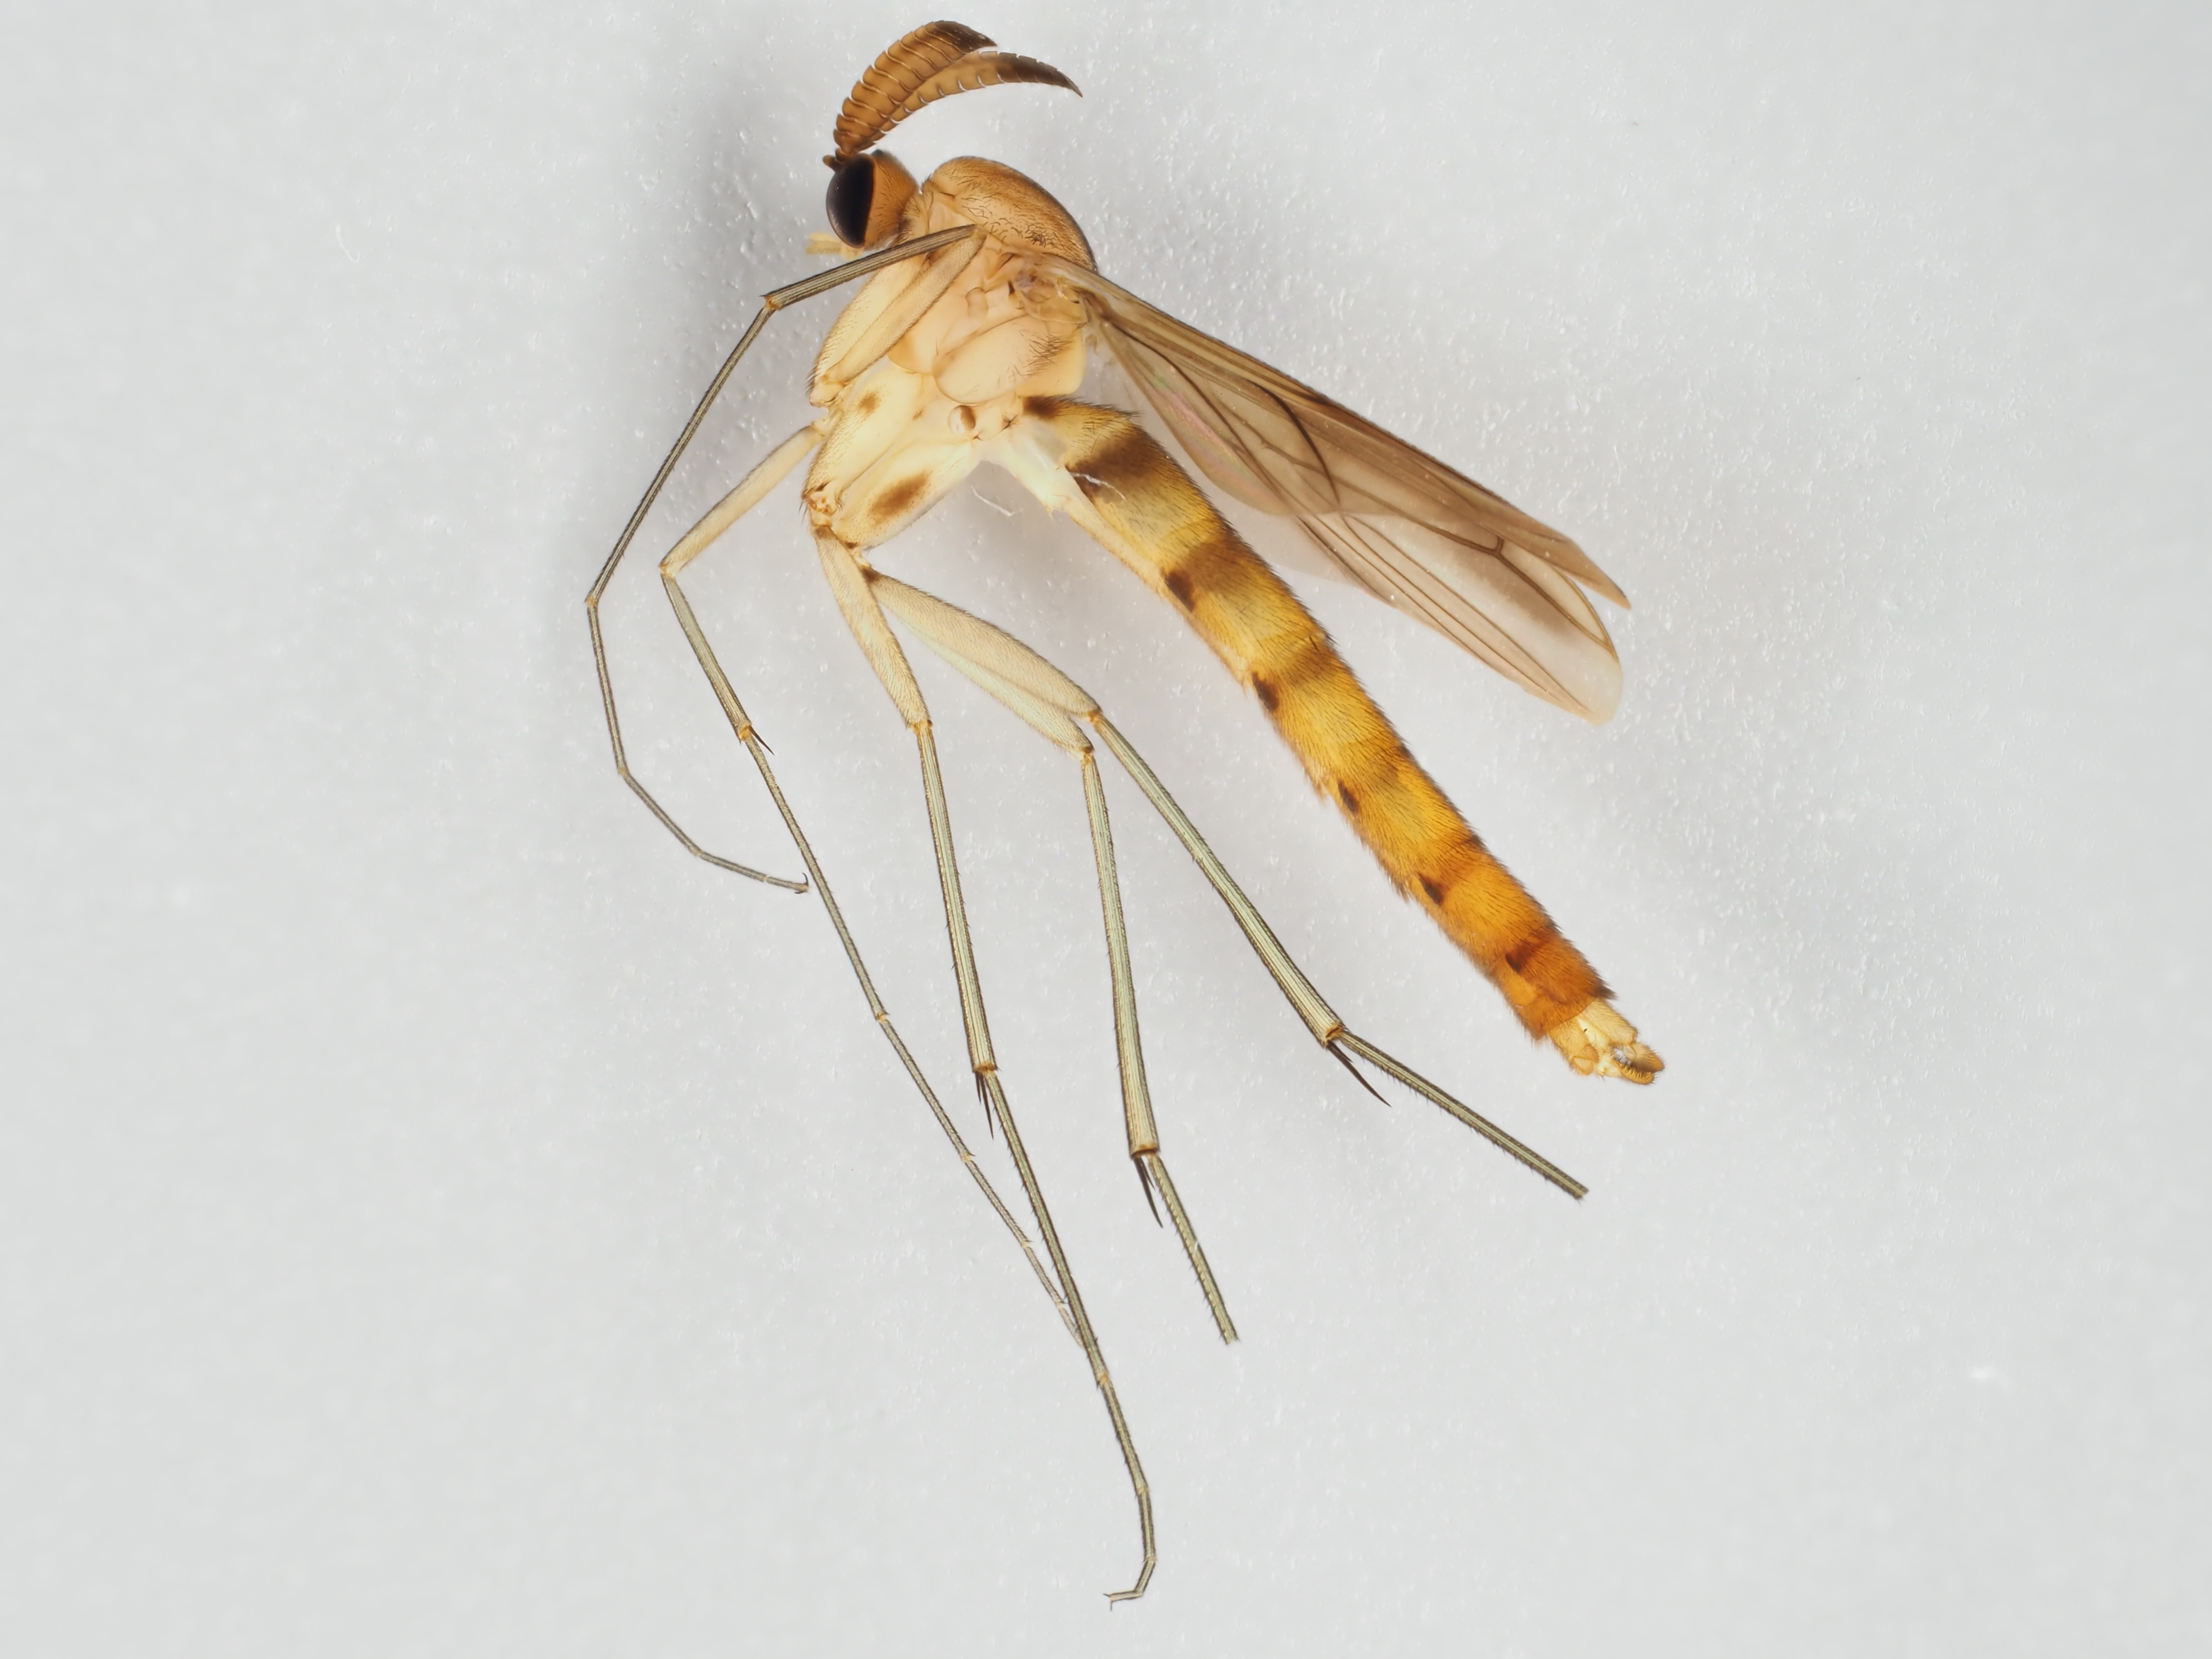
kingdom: Animalia
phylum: Arthropoda
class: Insecta
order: Diptera
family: Keroplatidae
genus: Keroplatus
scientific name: Keroplatus testaceus
